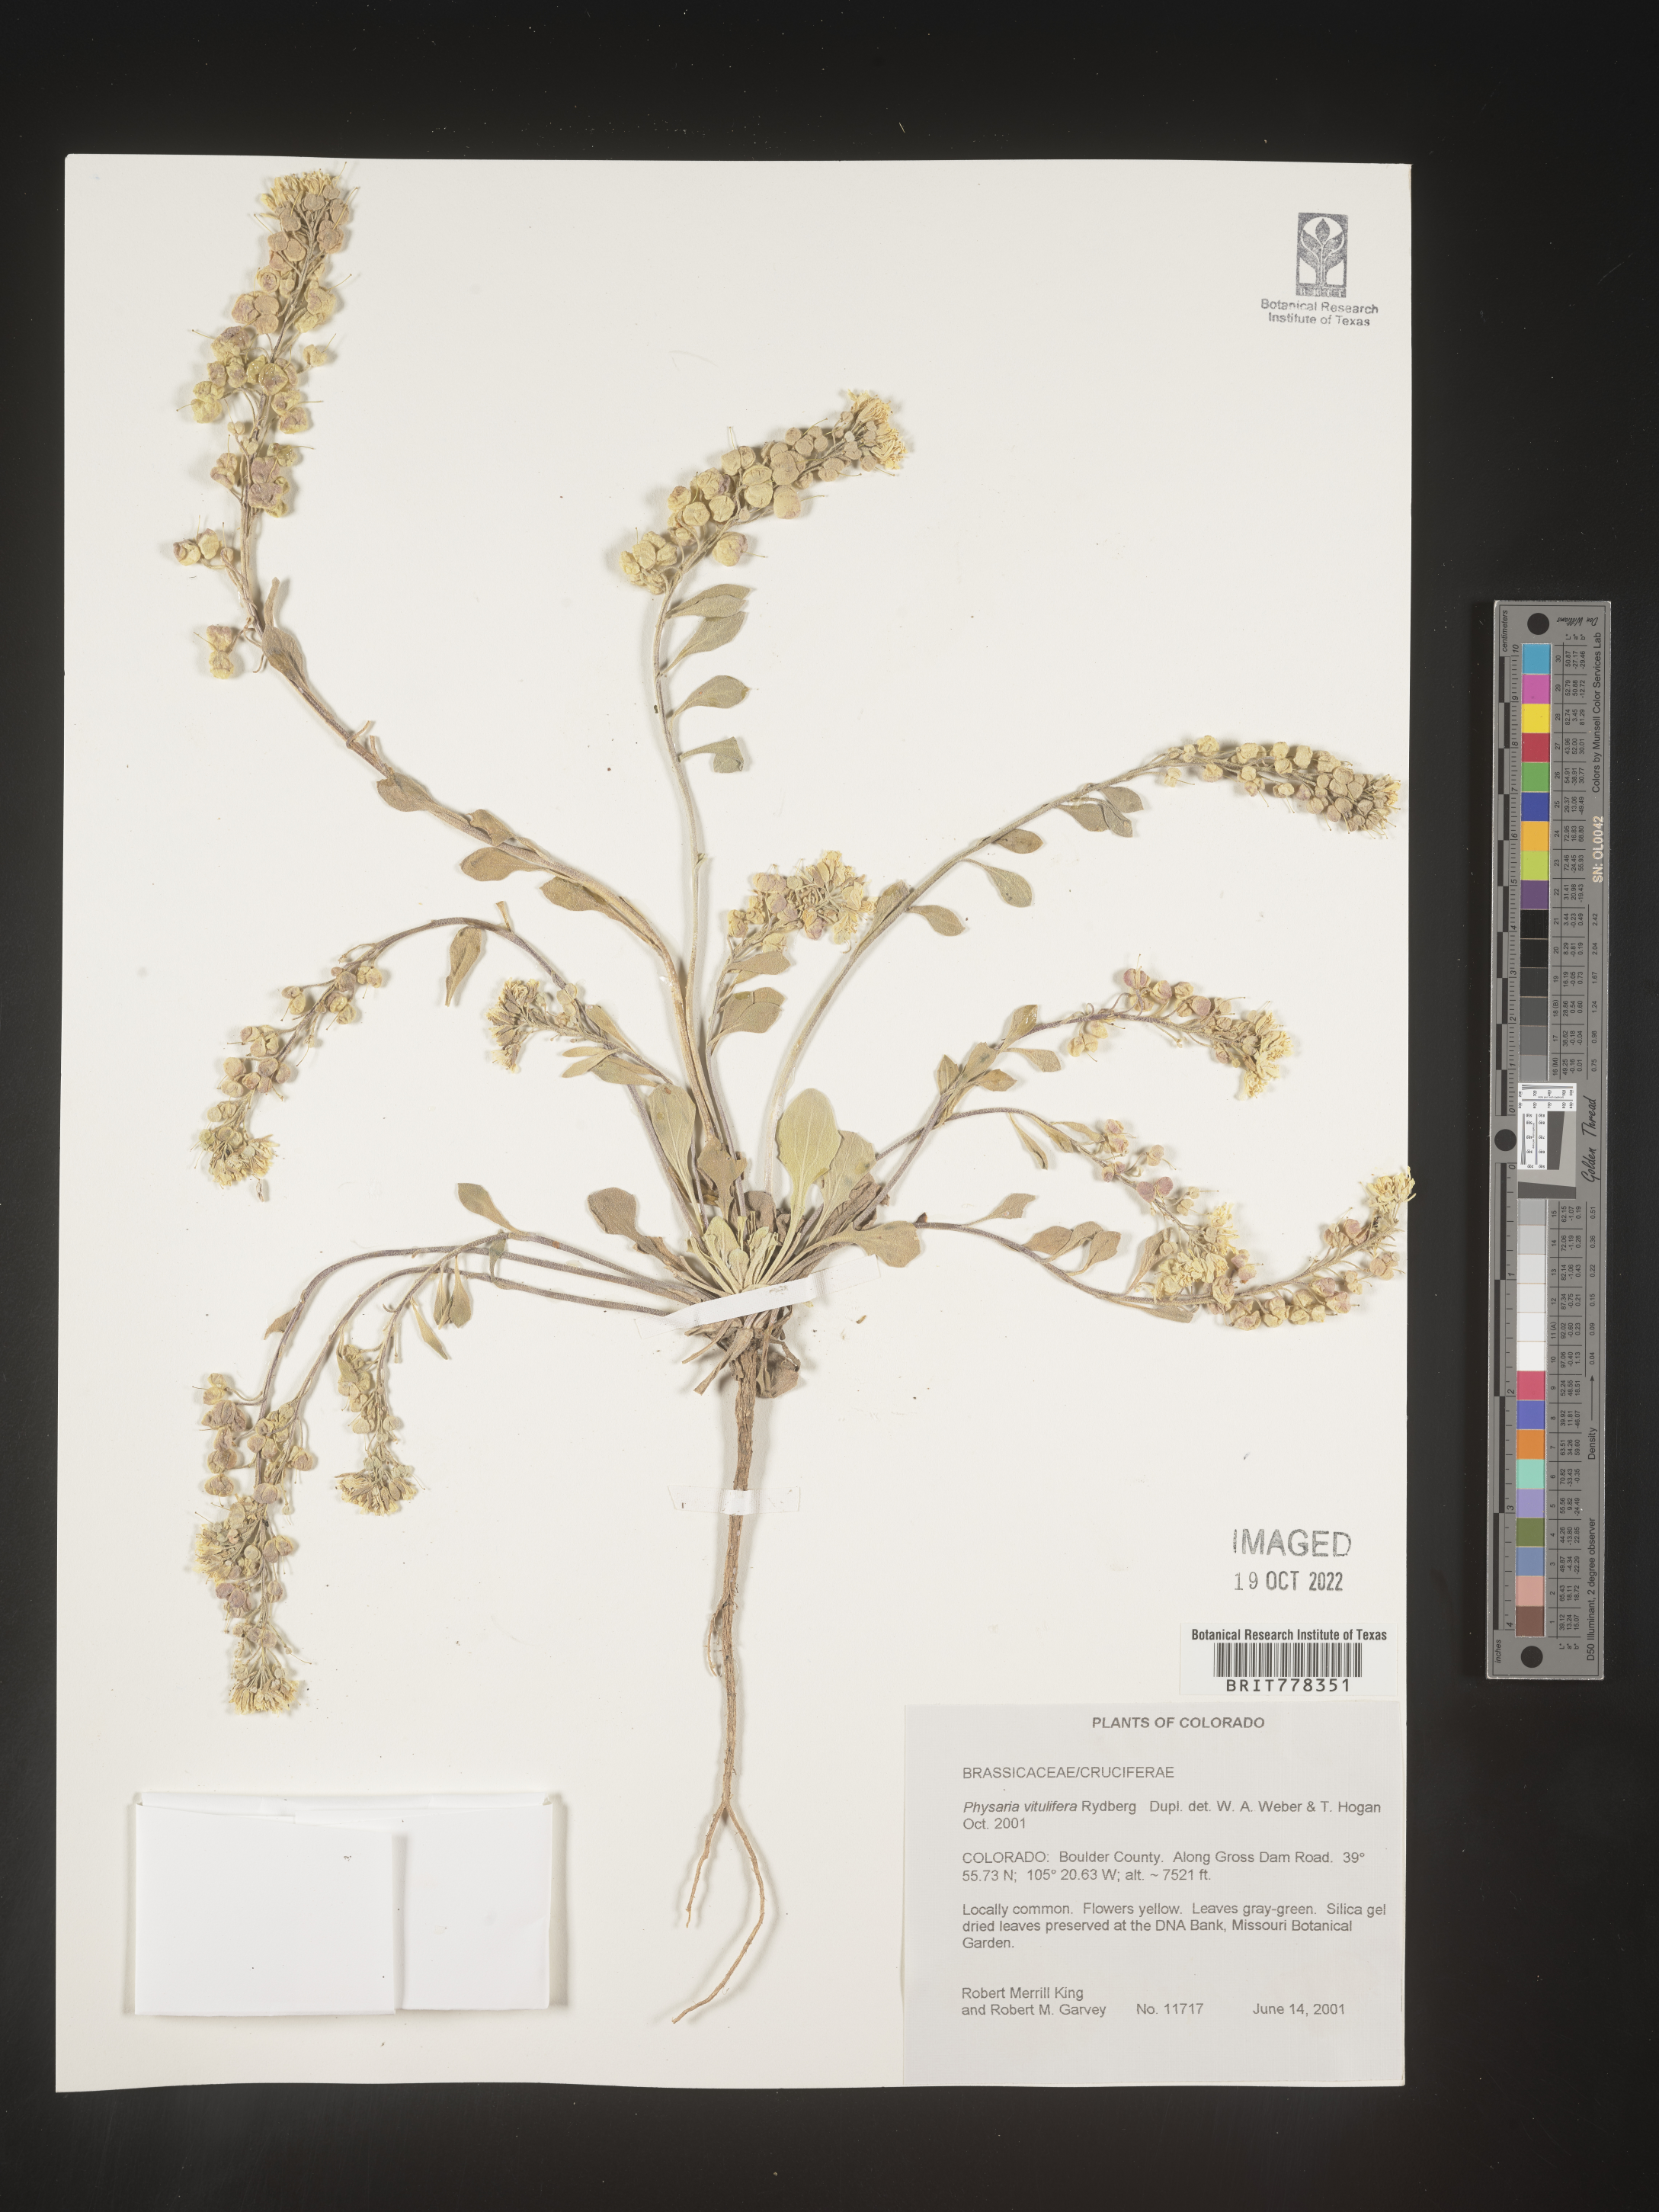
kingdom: Plantae
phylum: Tracheophyta
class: Magnoliopsida
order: Brassicales
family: Brassicaceae
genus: Physaria
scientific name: Physaria
